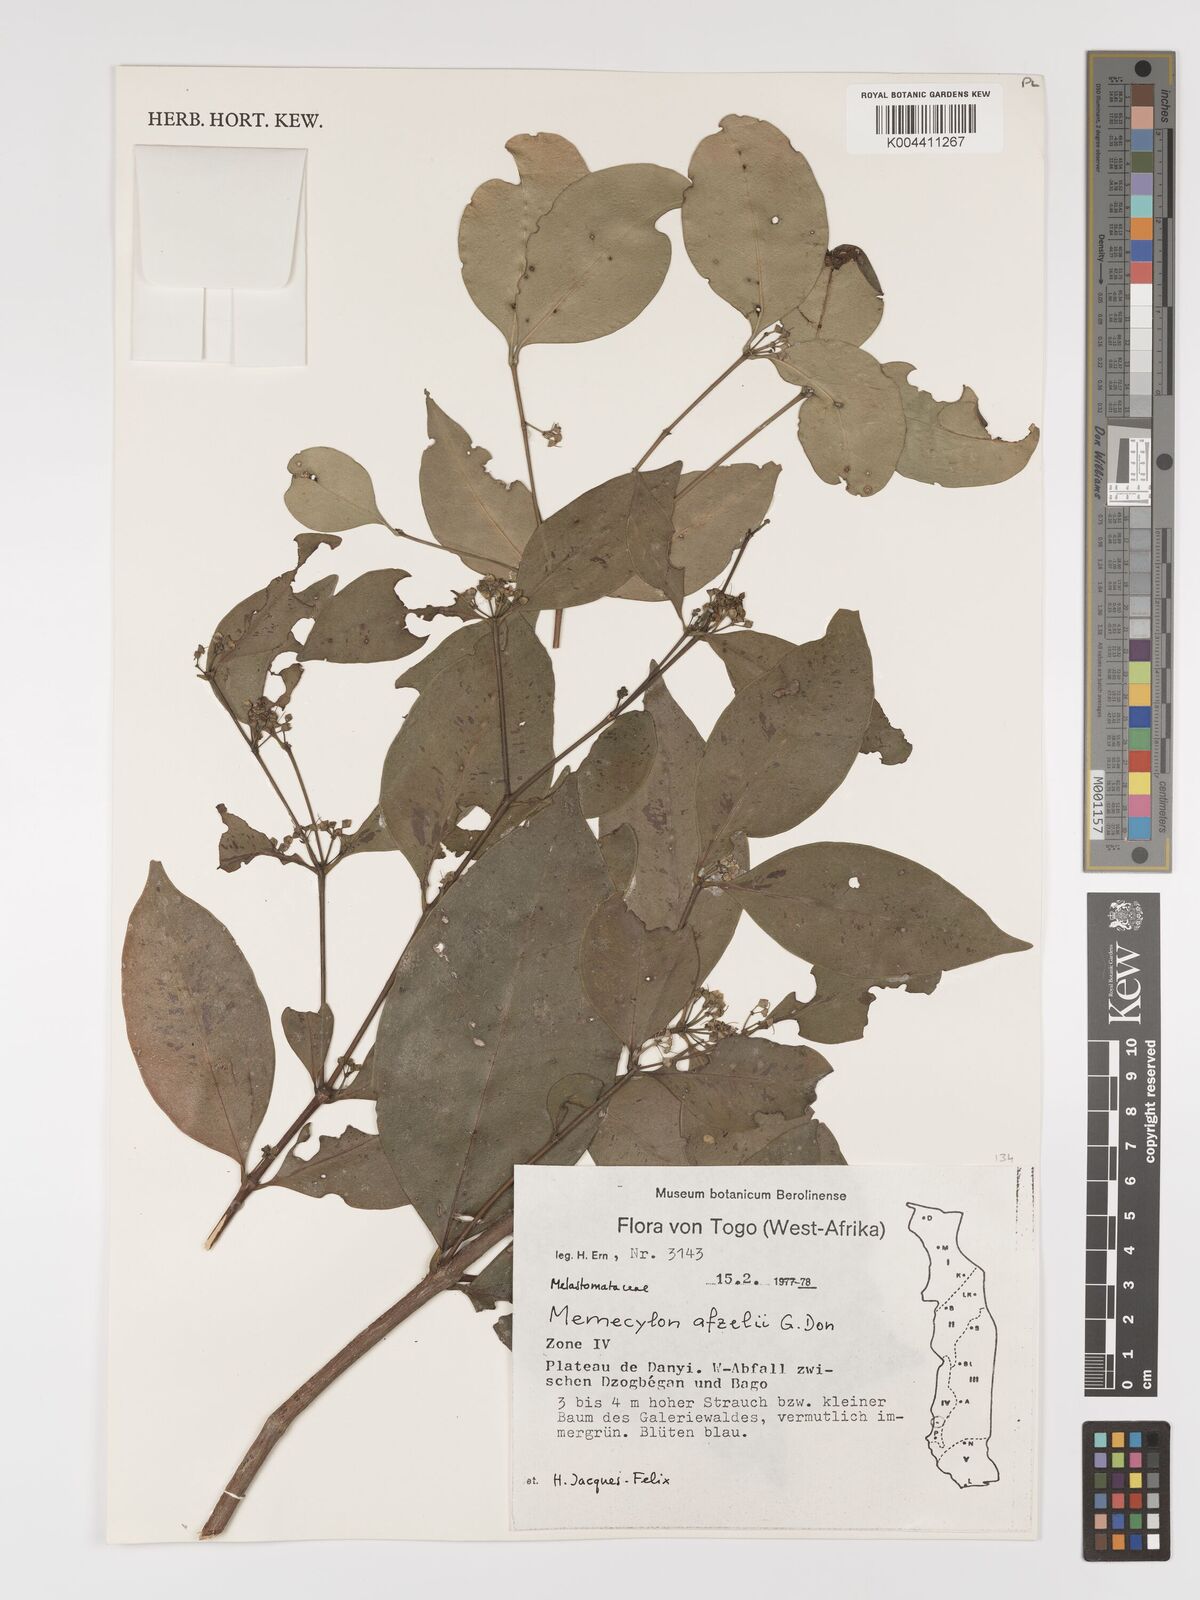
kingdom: Plantae
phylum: Tracheophyta
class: Magnoliopsida
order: Myrtales
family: Melastomataceae
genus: Memecylon
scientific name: Memecylon afzelii
